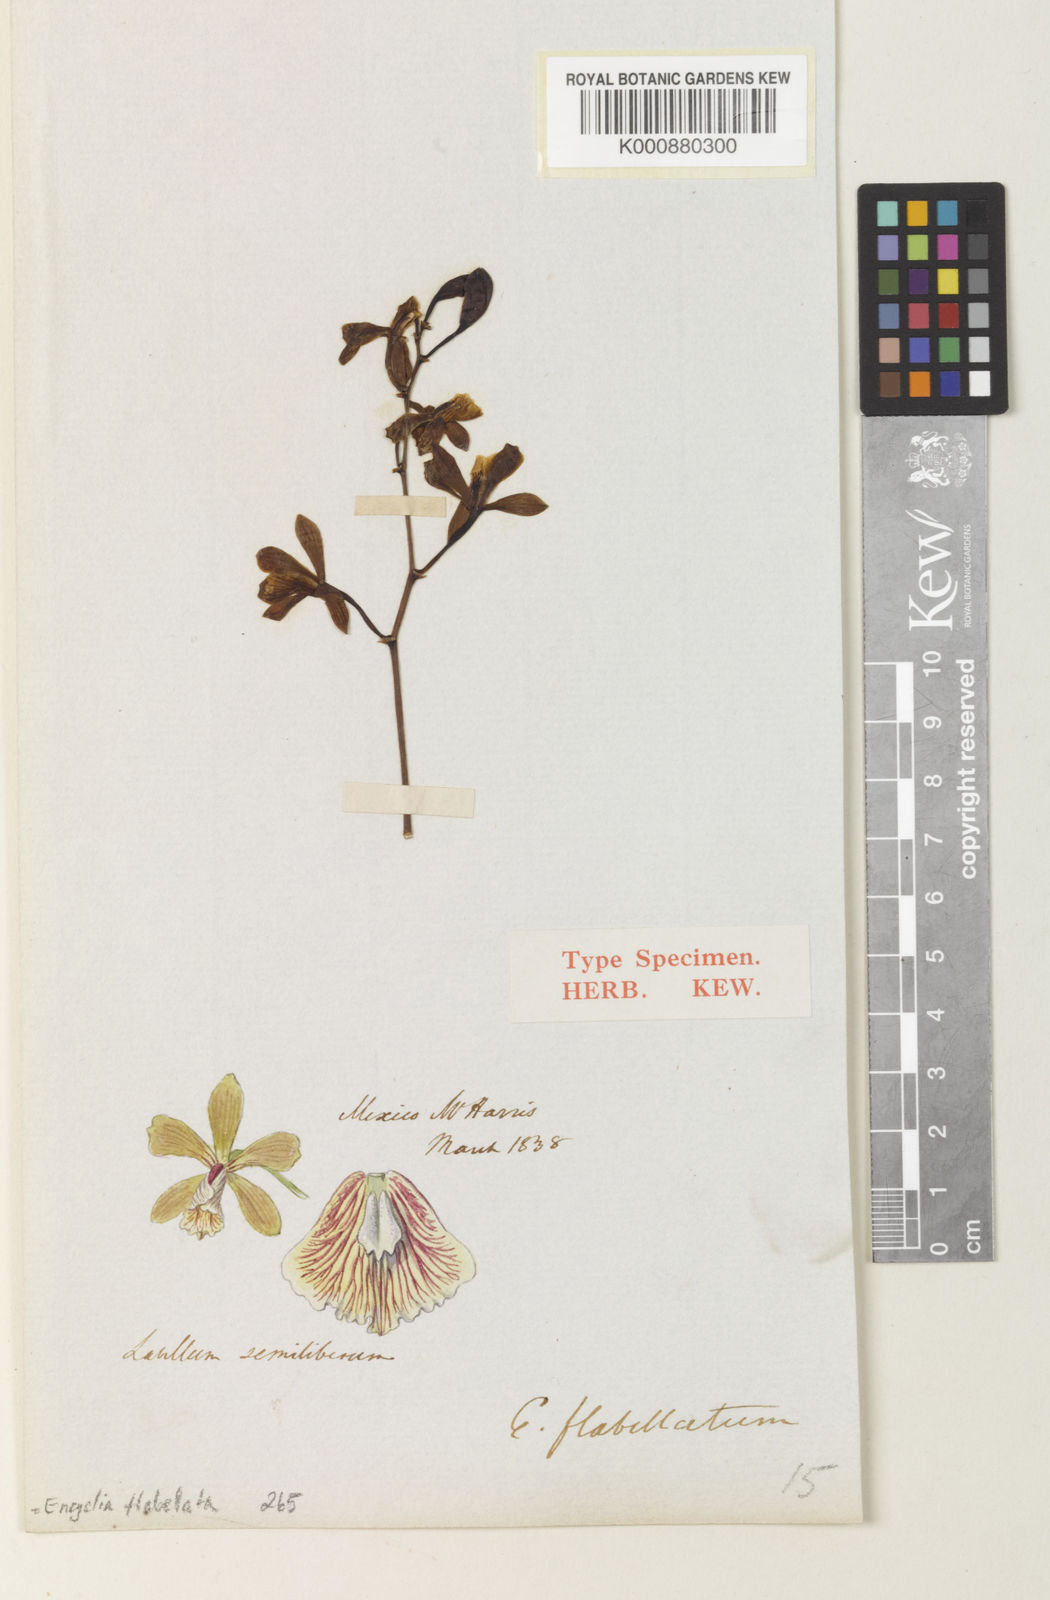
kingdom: Plantae
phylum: Tracheophyta
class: Liliopsida
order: Asparagales
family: Orchidaceae
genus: Encyclia
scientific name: Encyclia flabellata
